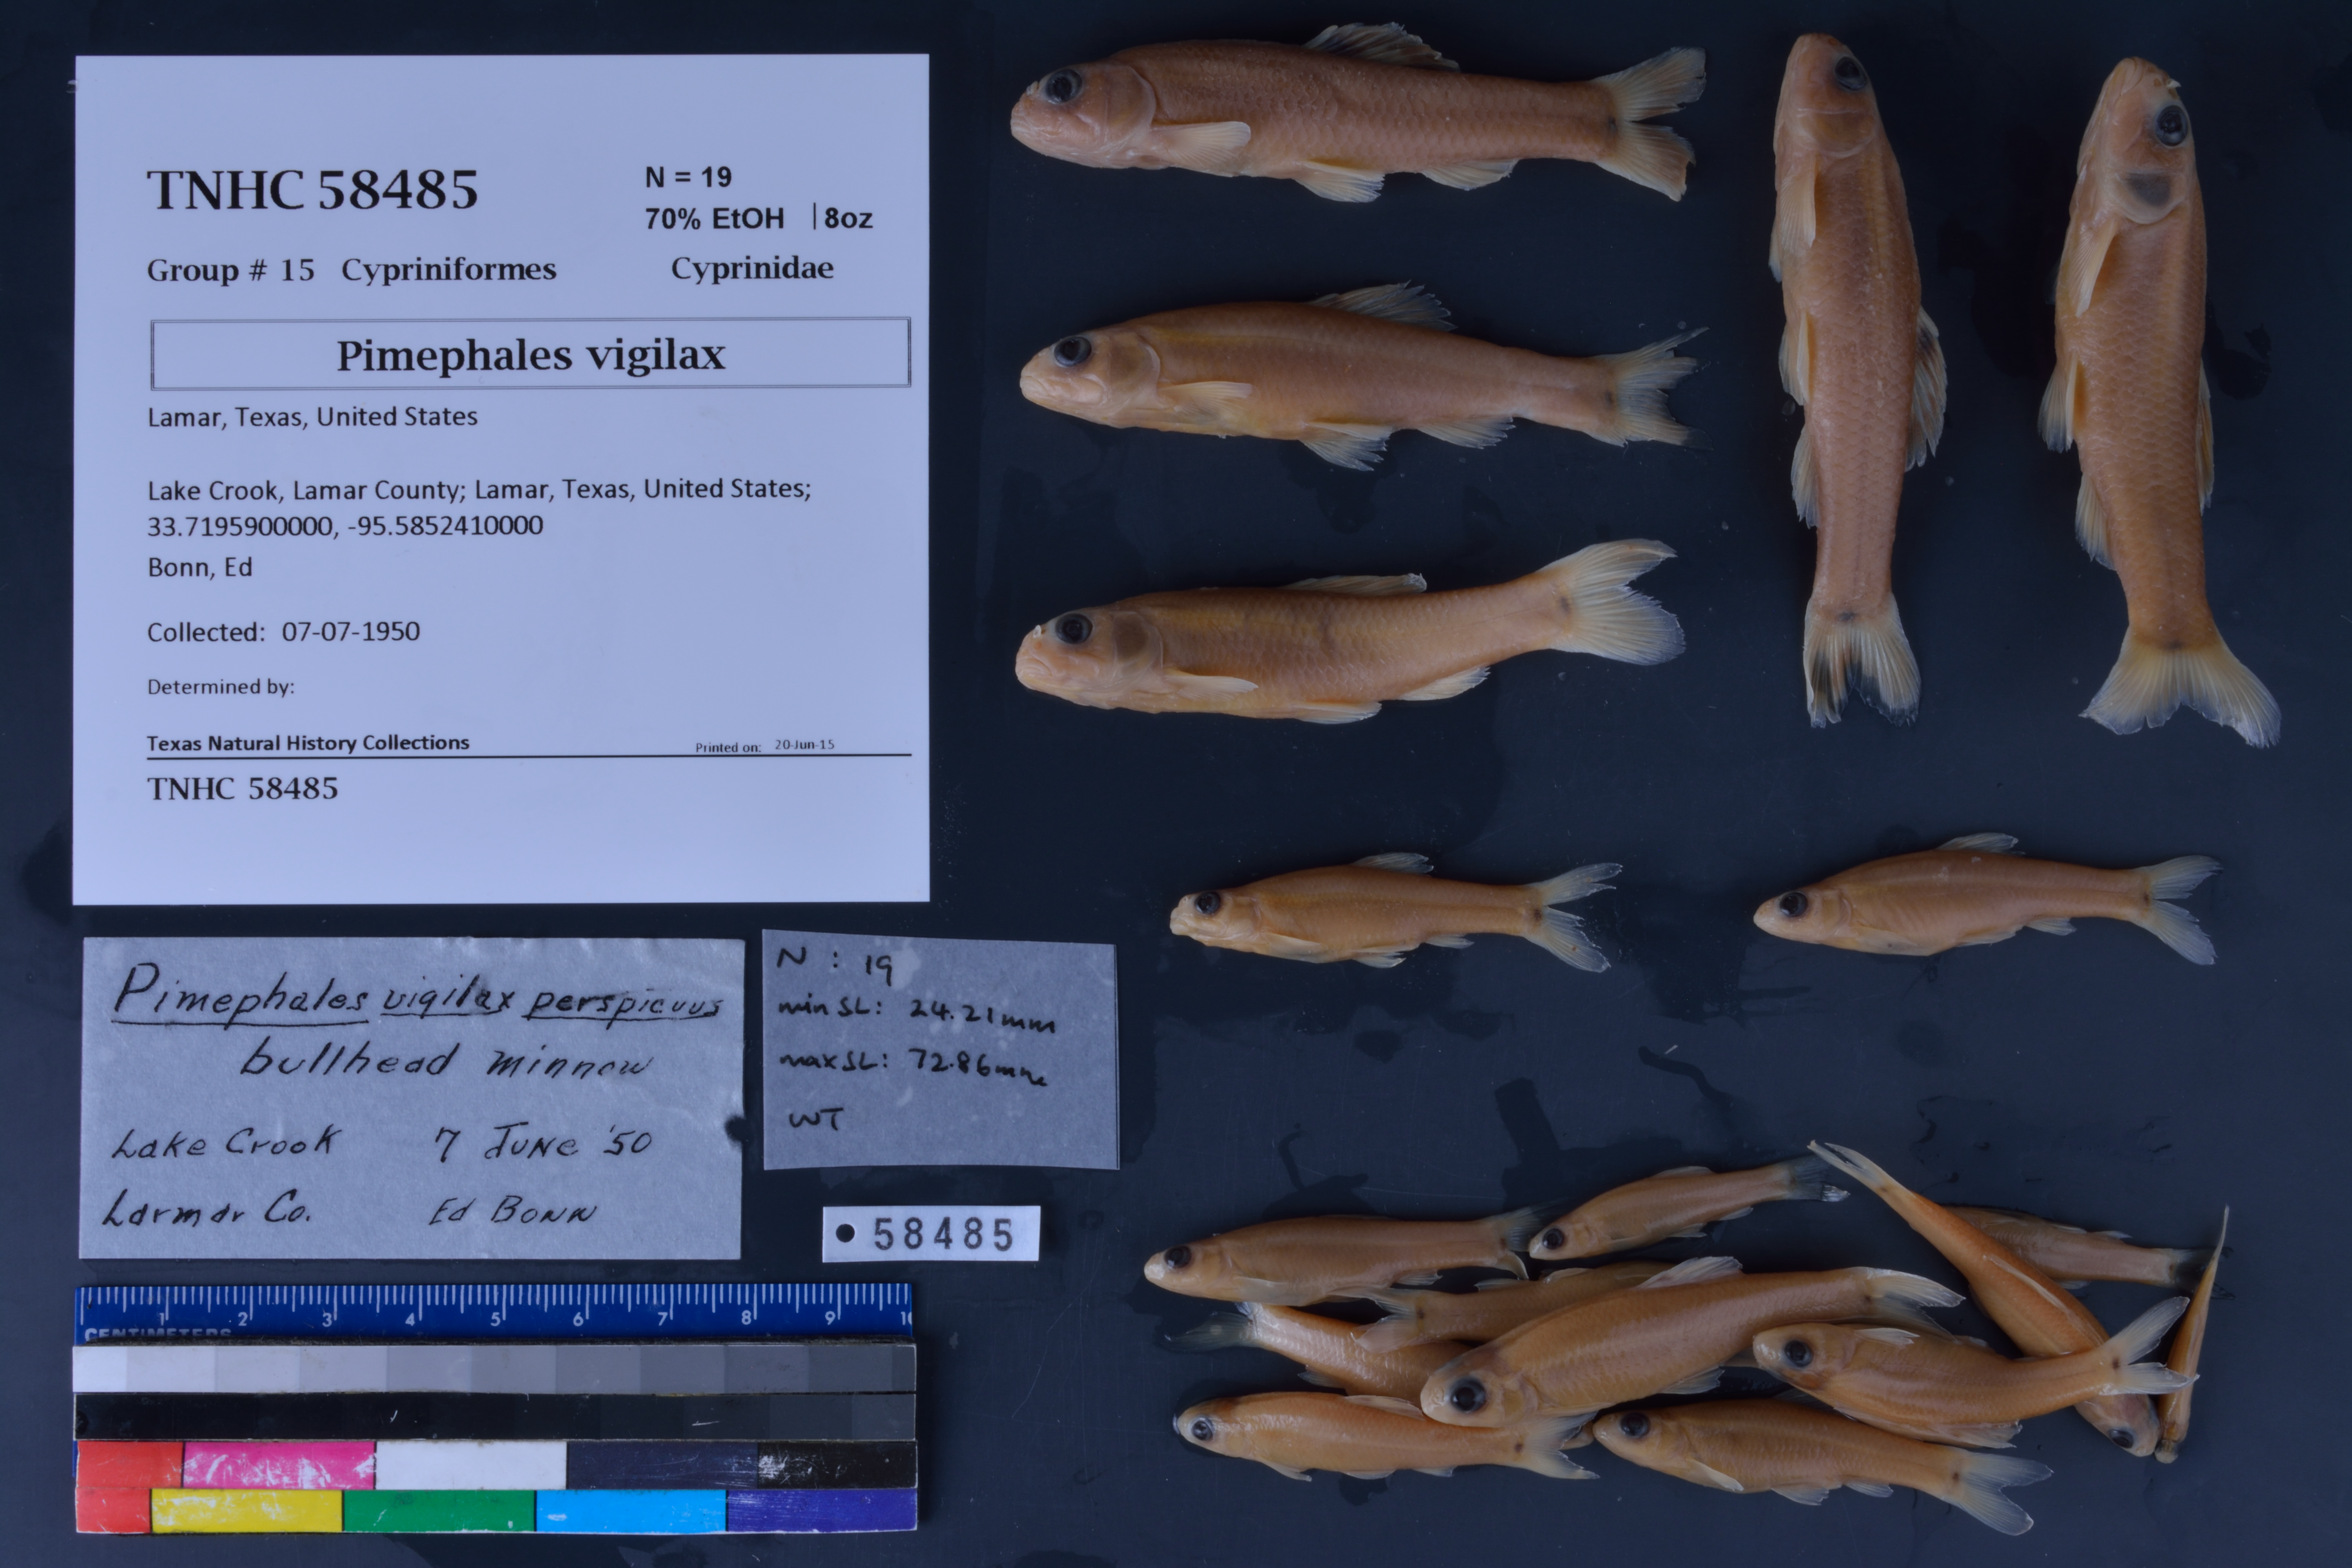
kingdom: Animalia
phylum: Chordata
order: Cypriniformes
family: Cyprinidae
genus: Pimephales
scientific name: Pimephales vigilax
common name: Bullhead minnow
